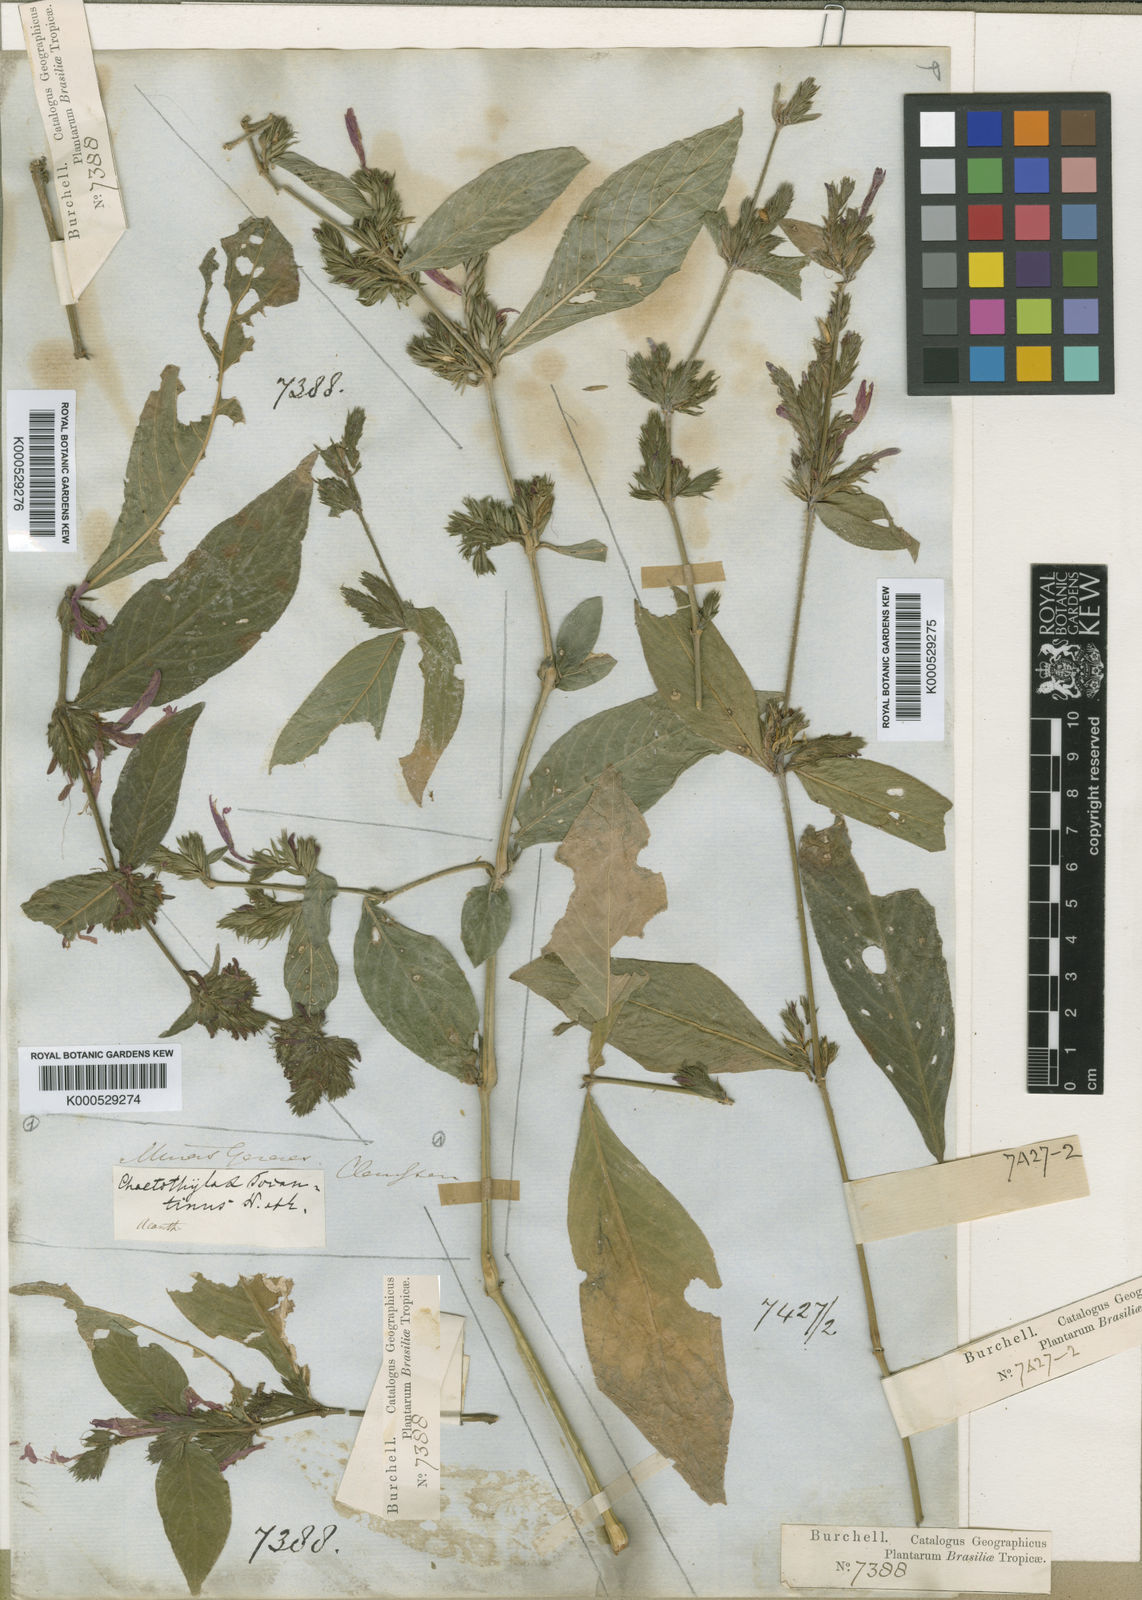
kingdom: Plantae
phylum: Tracheophyta
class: Magnoliopsida
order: Lamiales
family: Acanthaceae
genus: Justicia
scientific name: Justicia tocantina
